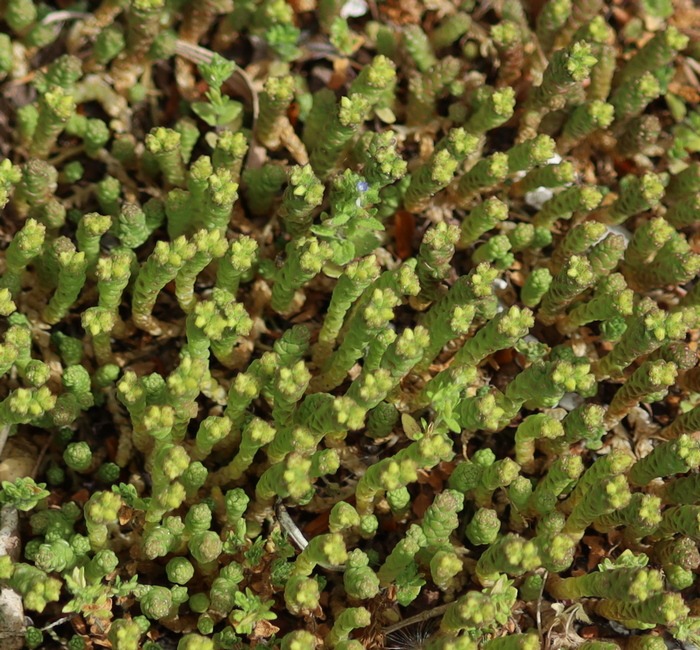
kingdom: Plantae
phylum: Tracheophyta
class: Magnoliopsida
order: Saxifragales
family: Crassulaceae
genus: Sedum
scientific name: Sedum acre
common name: Bidende stenurt
